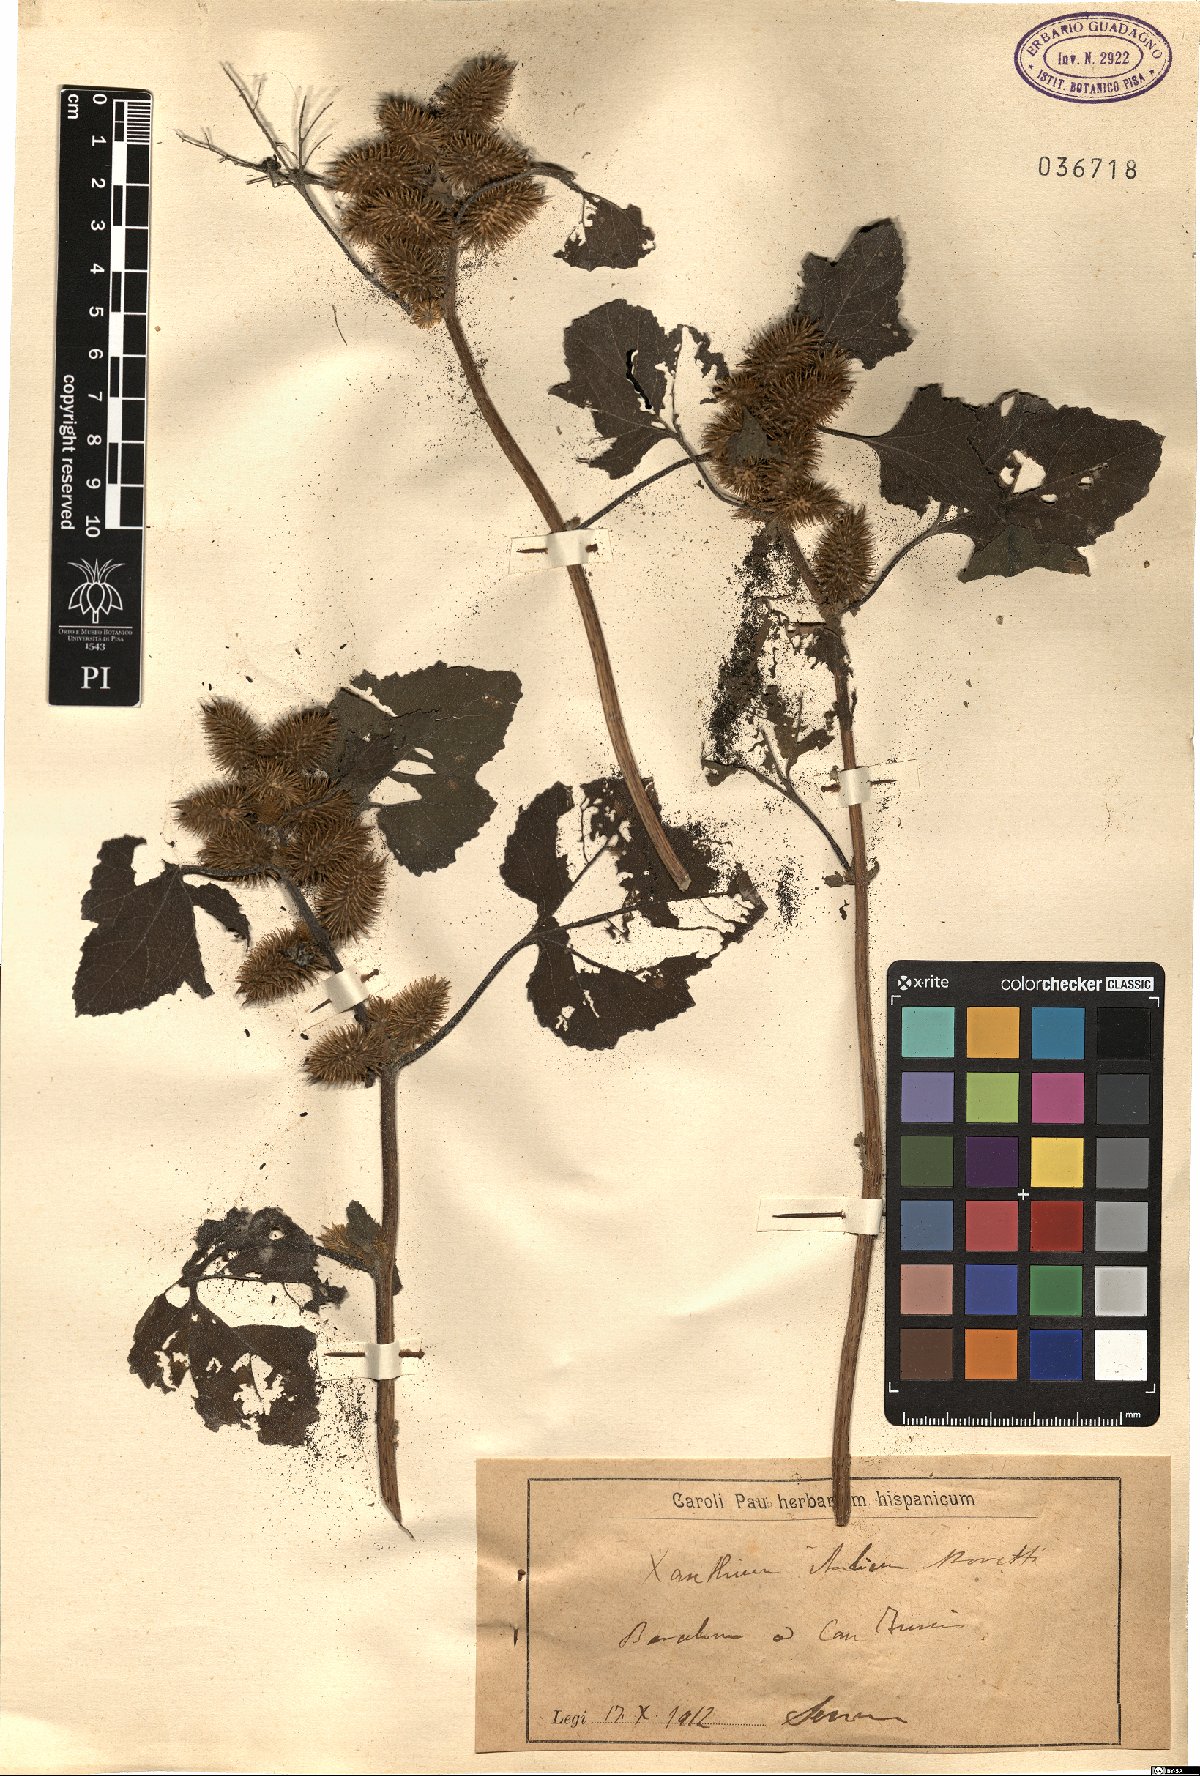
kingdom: Plantae
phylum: Tracheophyta
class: Magnoliopsida
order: Asterales
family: Asteraceae
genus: Xanthium
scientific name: Xanthium orientale
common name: Californian burr
